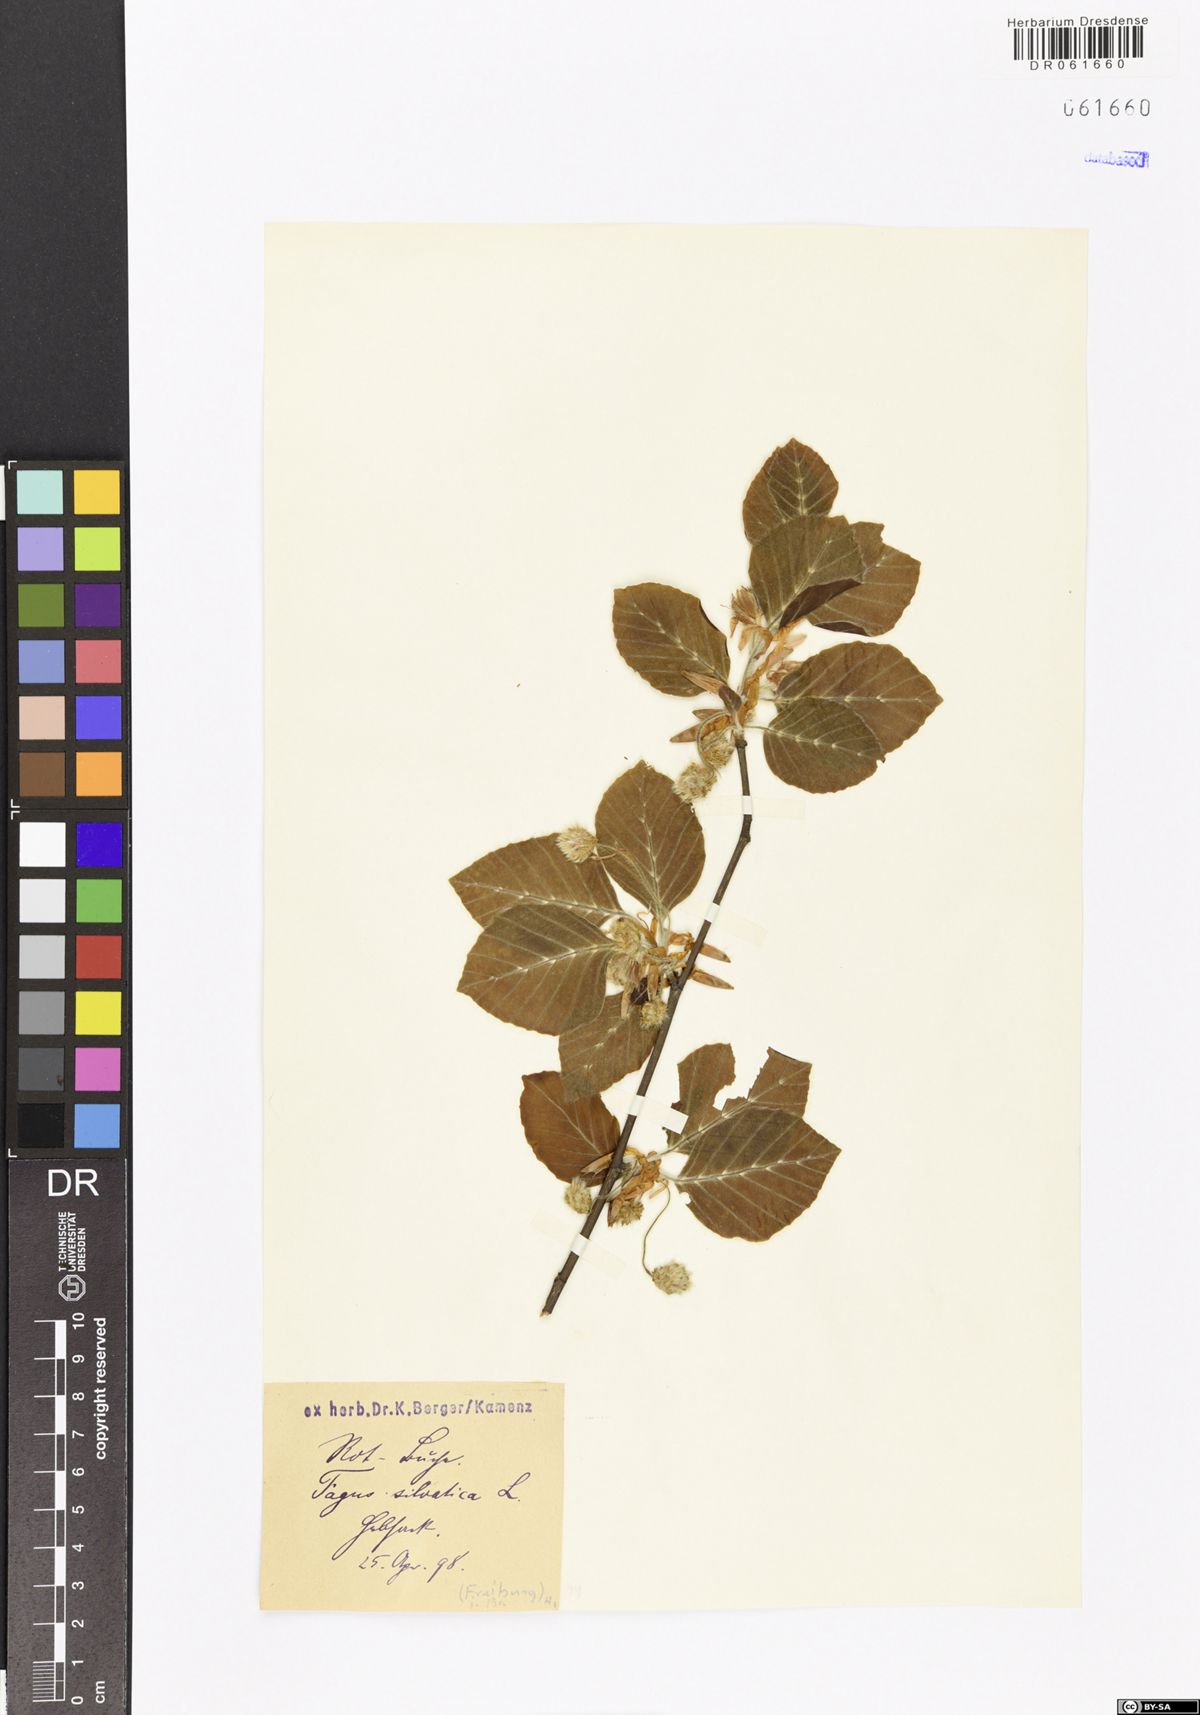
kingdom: Plantae
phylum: Tracheophyta
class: Magnoliopsida
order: Fagales
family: Fagaceae
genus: Fagus
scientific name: Fagus sylvatica
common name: Beech
